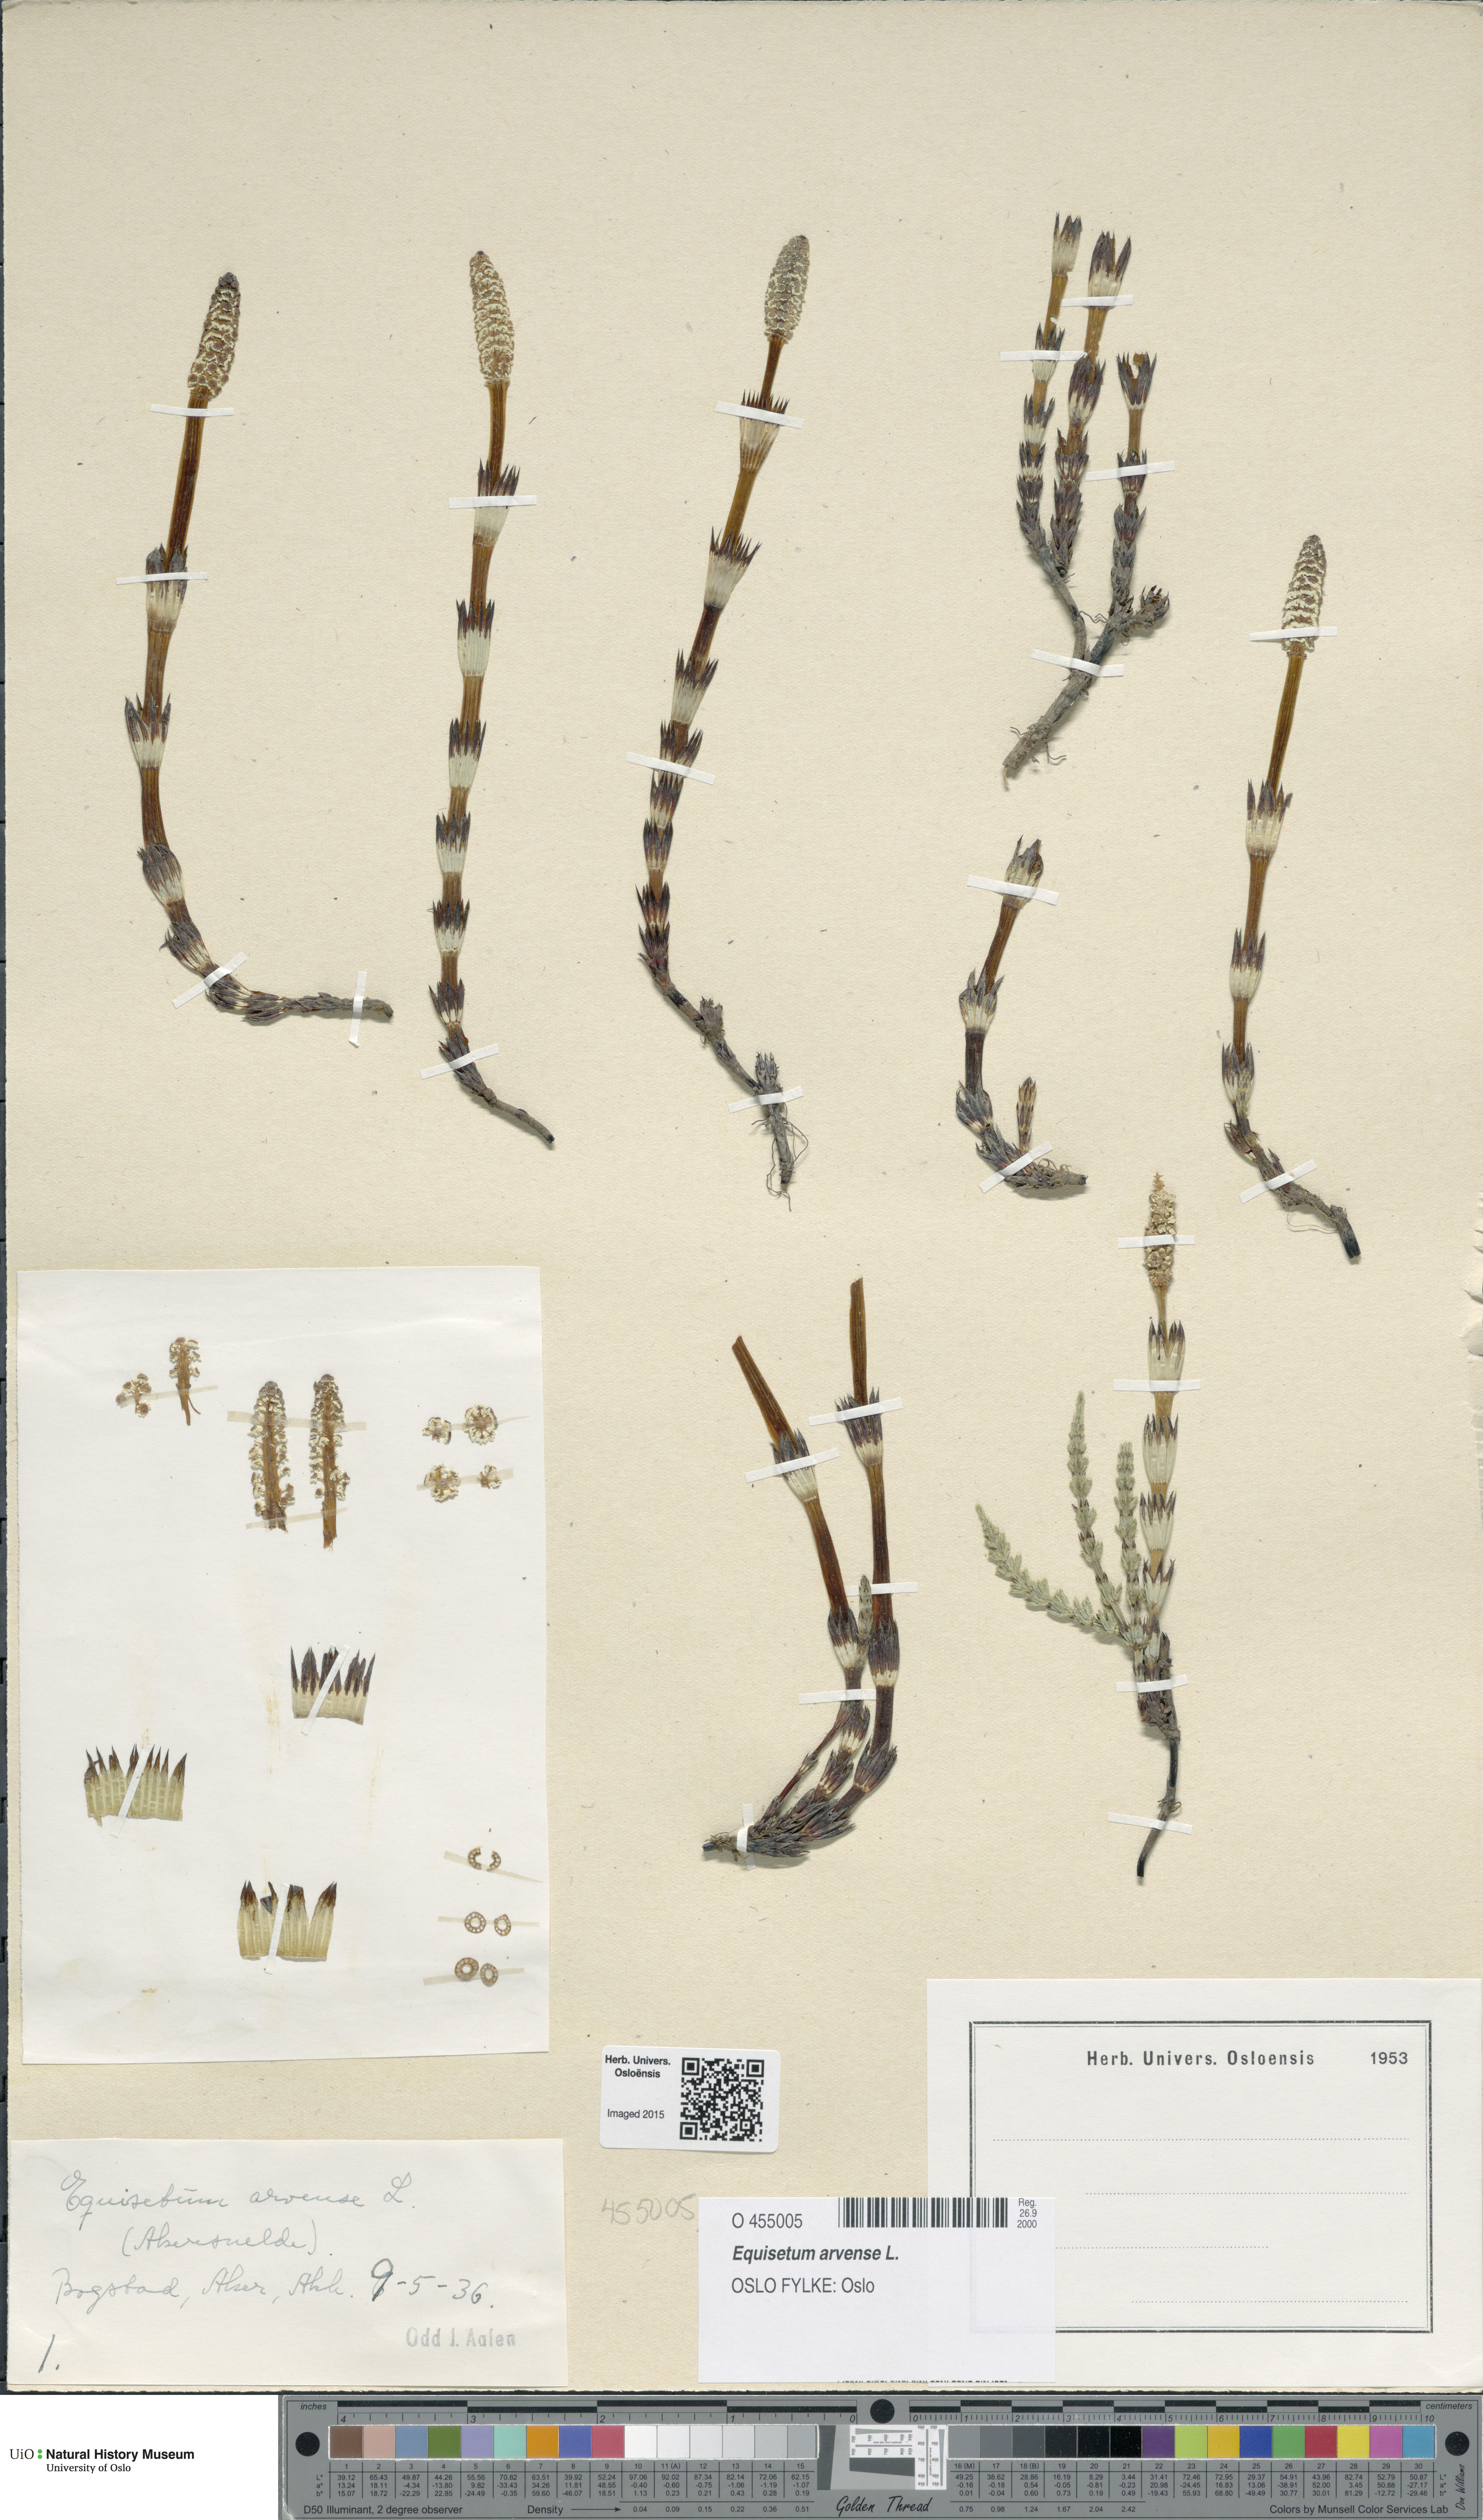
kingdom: Plantae
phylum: Tracheophyta
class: Polypodiopsida
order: Equisetales
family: Equisetaceae
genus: Equisetum
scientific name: Equisetum arvense
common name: Field horsetail
